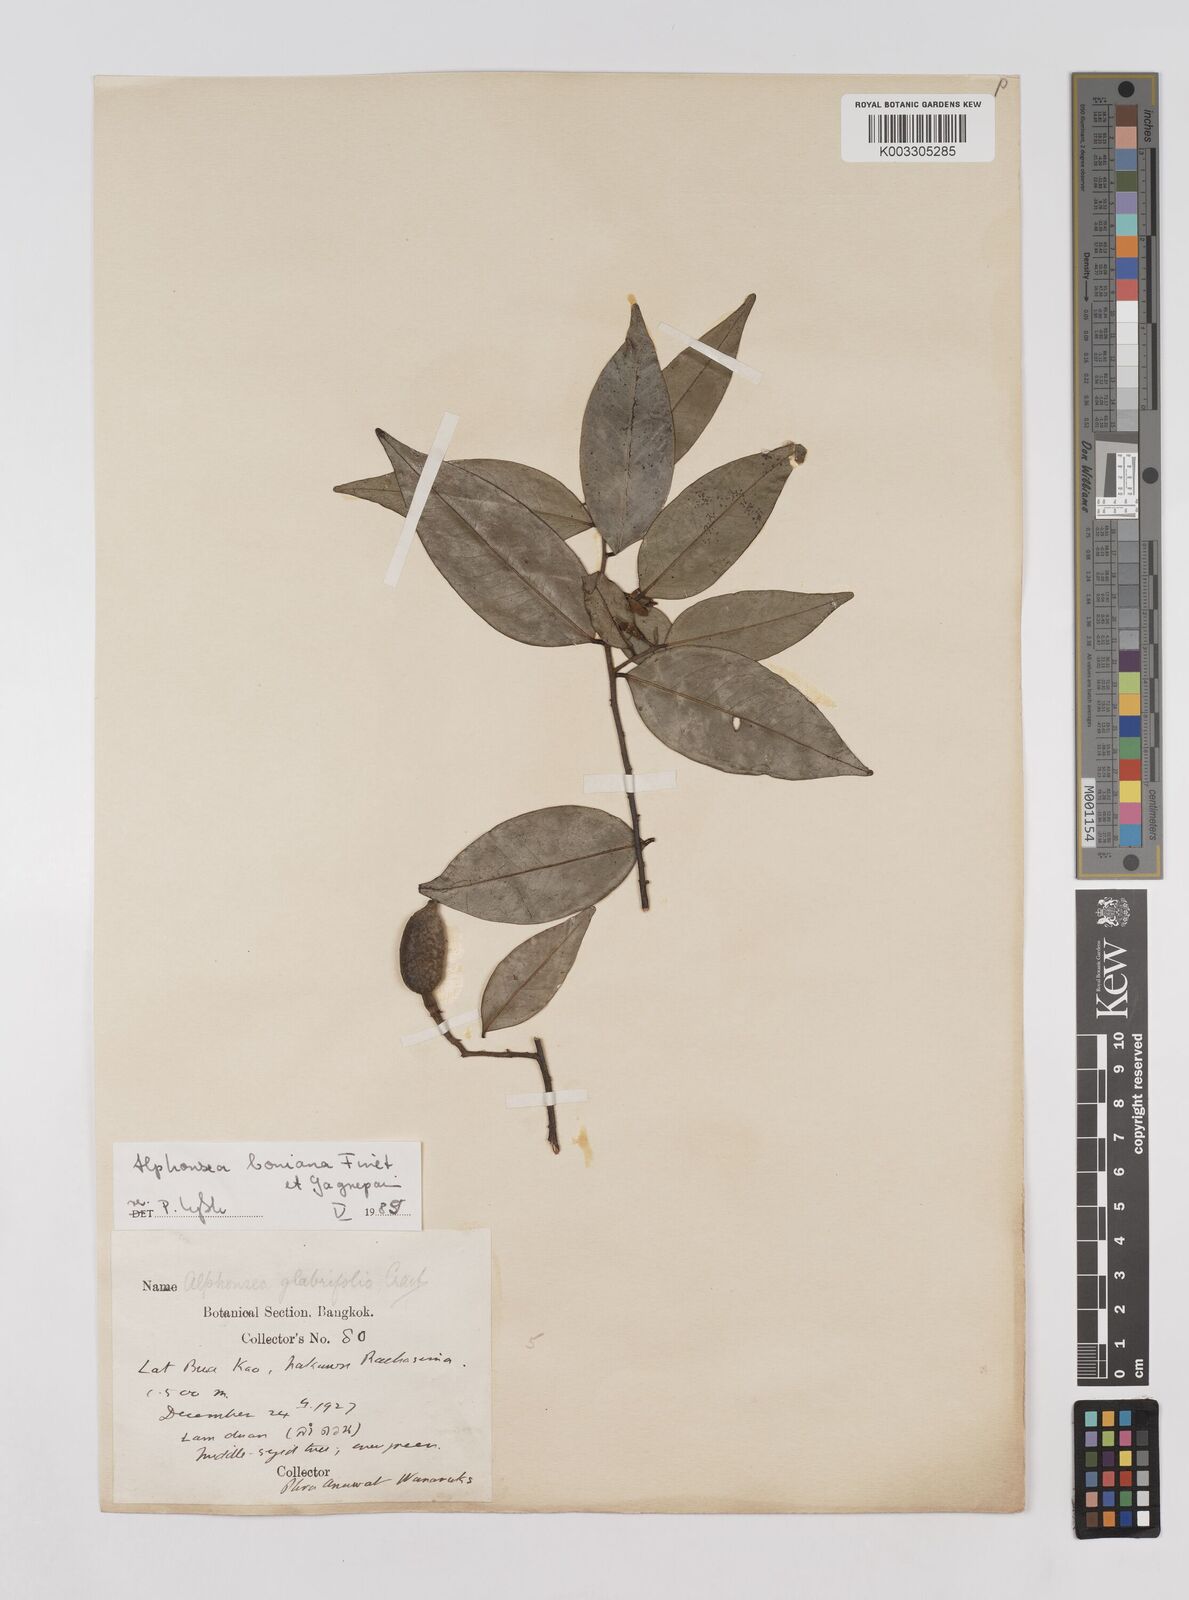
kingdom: Plantae
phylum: Tracheophyta
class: Magnoliopsida
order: Magnoliales
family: Annonaceae
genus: Alphonsea
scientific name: Alphonsea boniana
